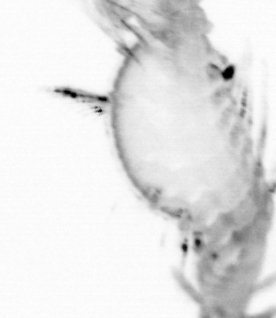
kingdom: Animalia
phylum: Annelida
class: Polychaeta
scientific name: Polychaeta
